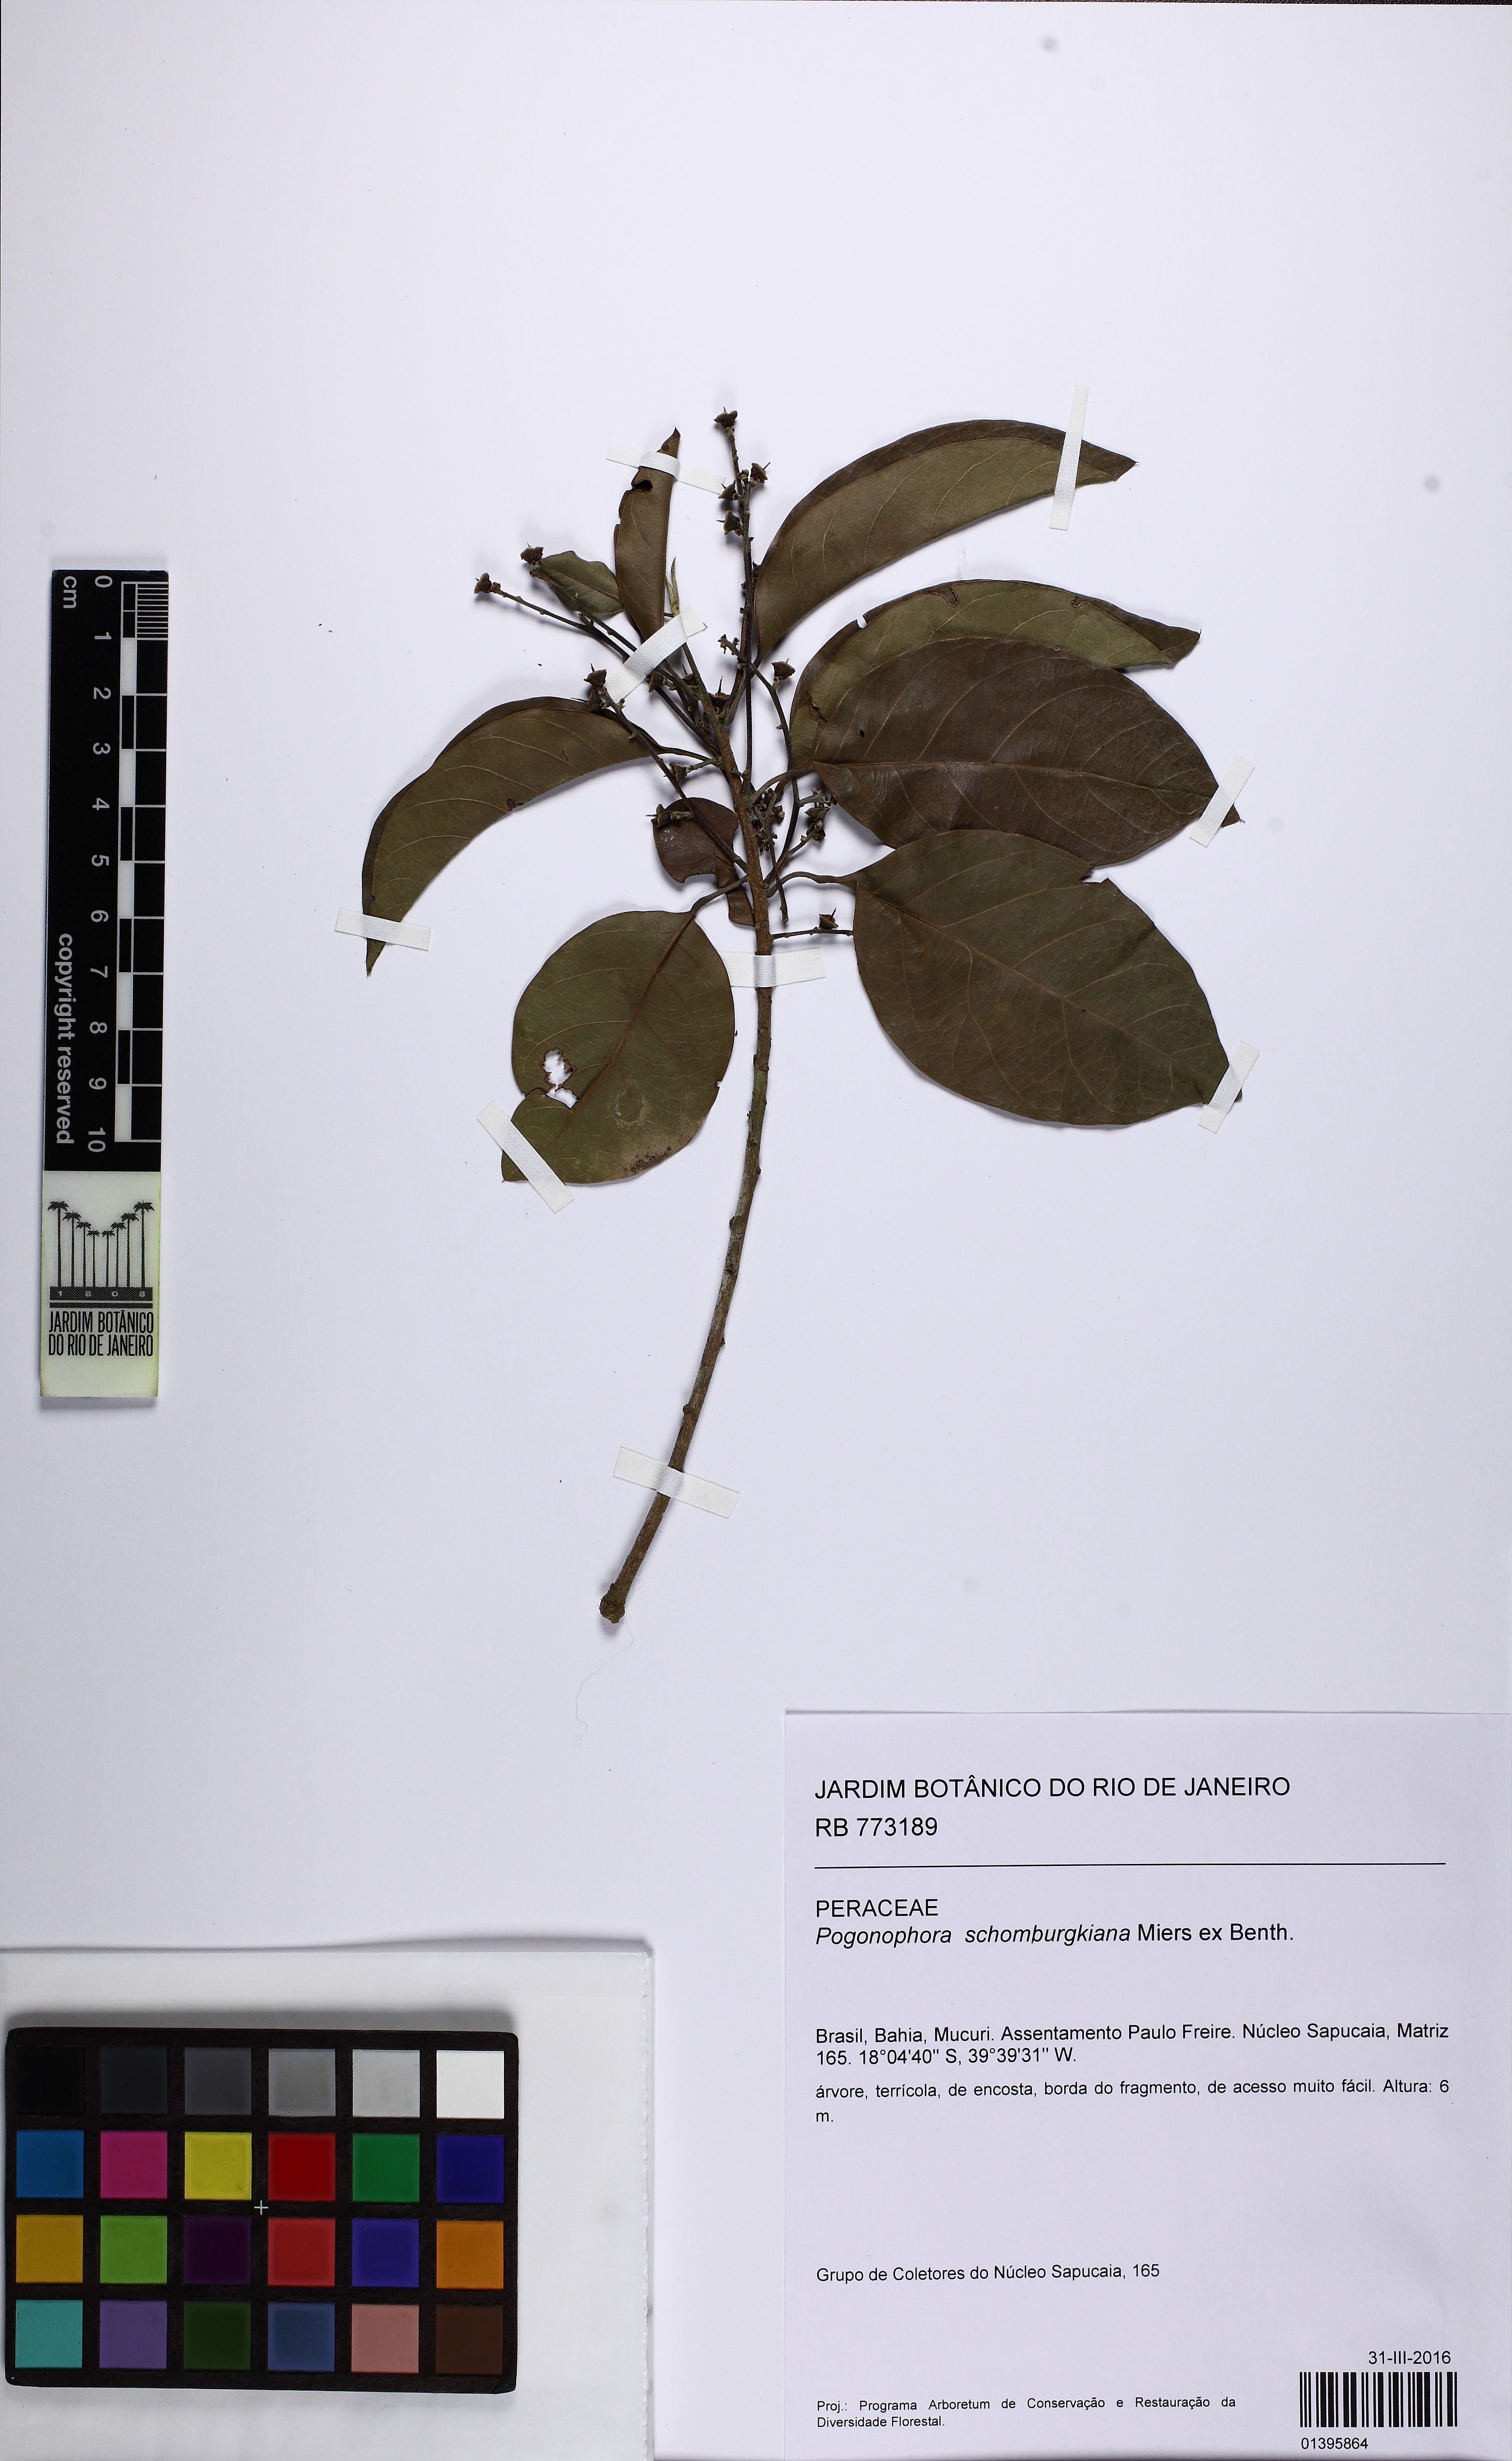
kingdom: Plantae
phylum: Tracheophyta
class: Magnoliopsida
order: Malpighiales
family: Peraceae
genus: Pogonophora
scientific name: Pogonophora schomburgkiana
